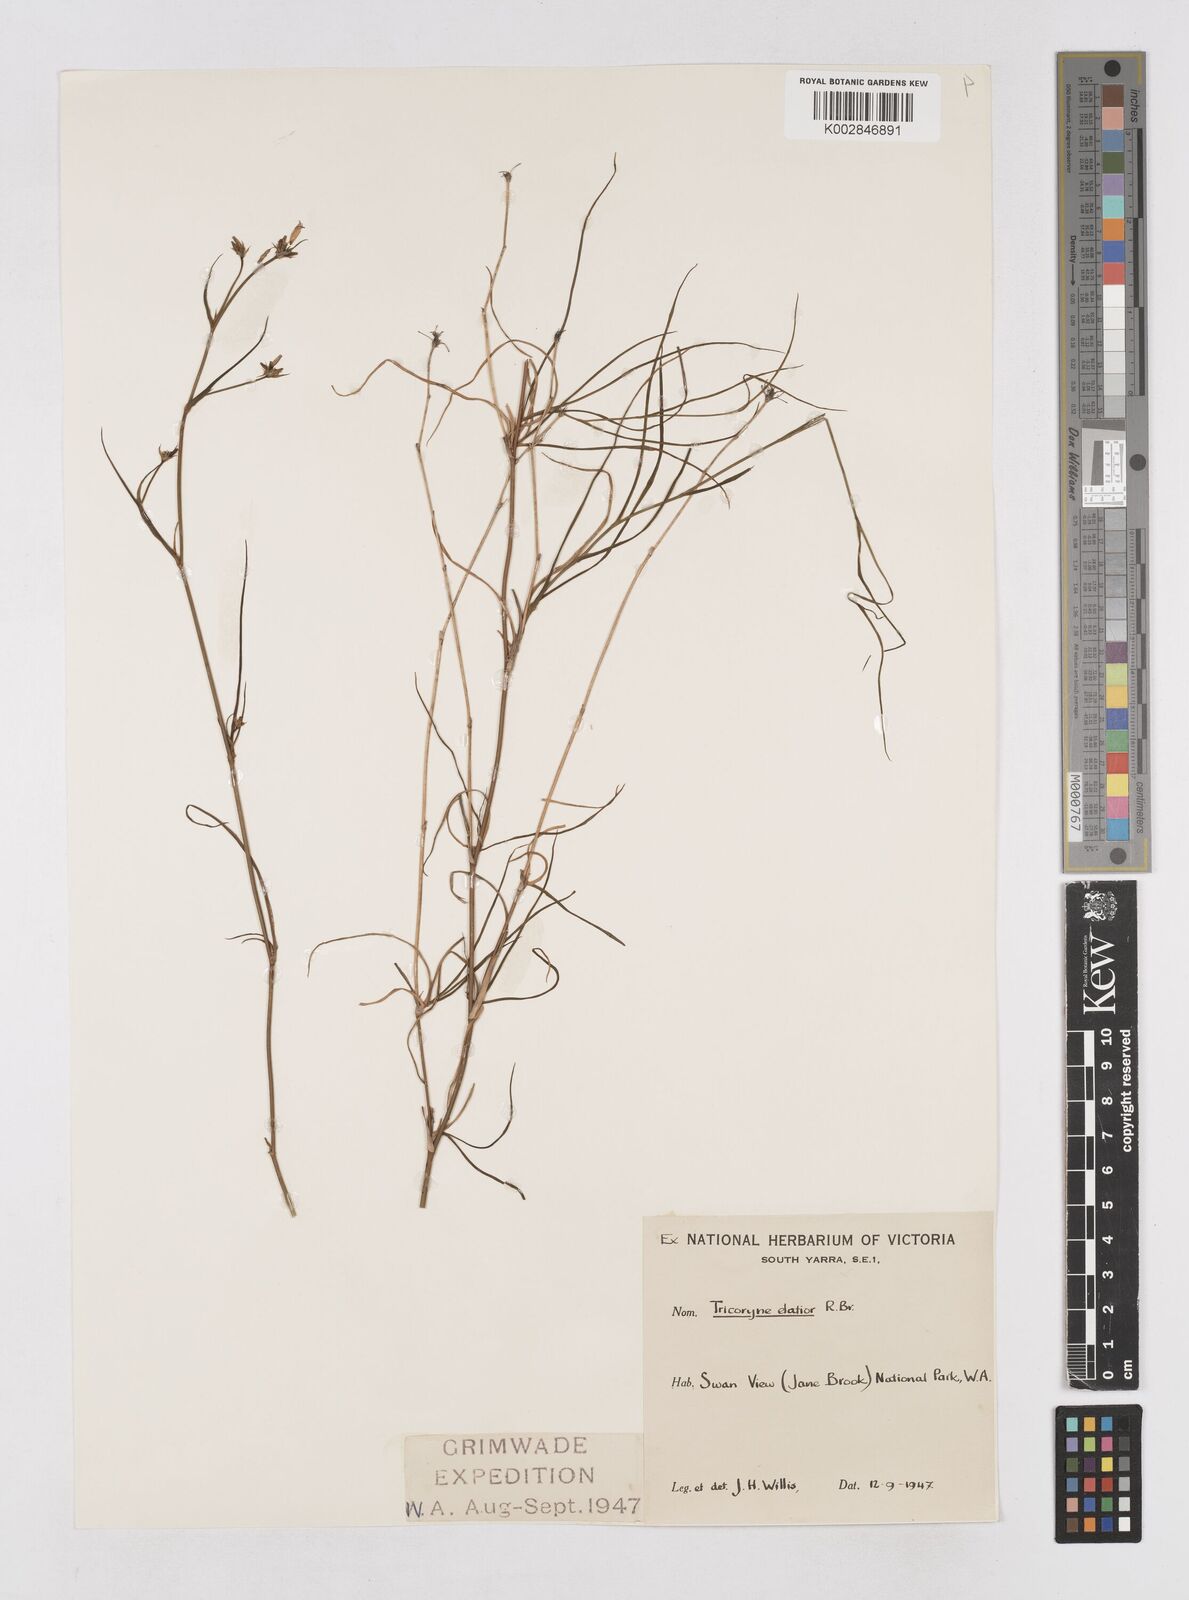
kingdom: Plantae
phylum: Tracheophyta
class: Liliopsida
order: Asparagales
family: Asphodelaceae
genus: Tricoryne
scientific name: Tricoryne elatior
